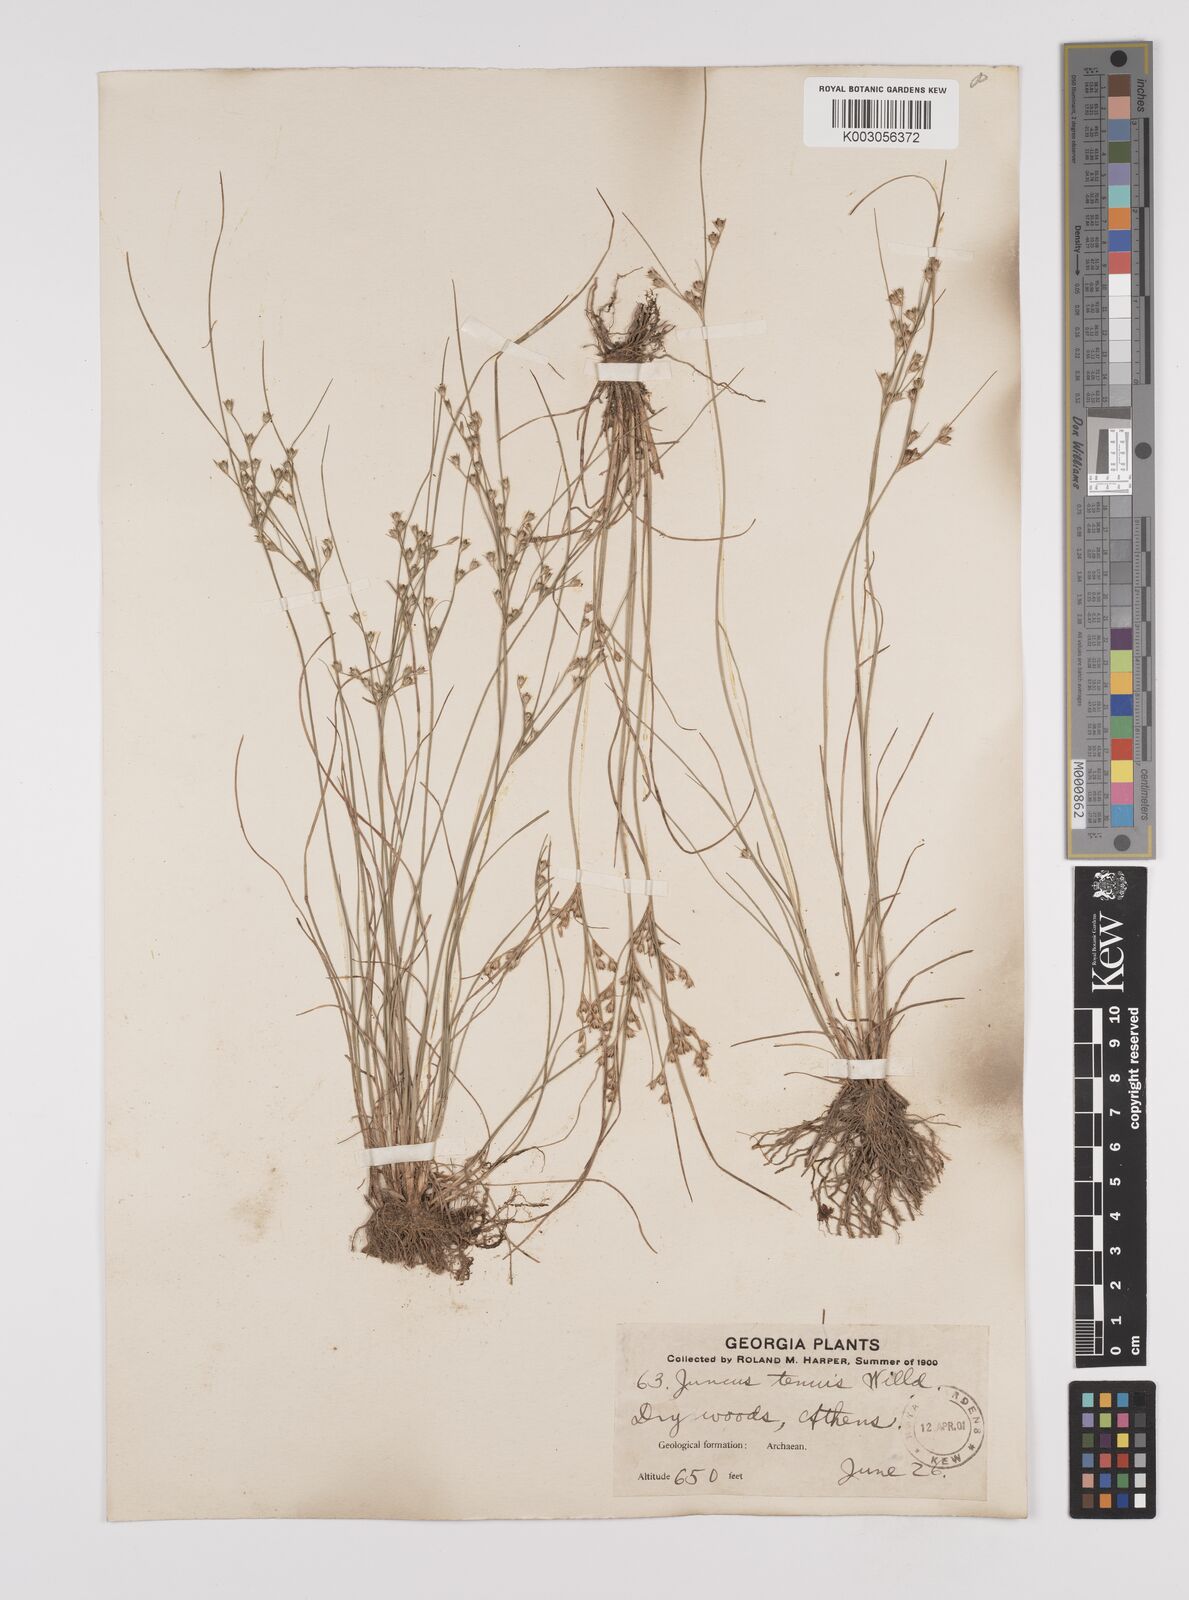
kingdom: Plantae
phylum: Tracheophyta
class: Liliopsida
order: Poales
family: Juncaceae
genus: Juncus
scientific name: Juncus tenuis
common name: Slender rush
